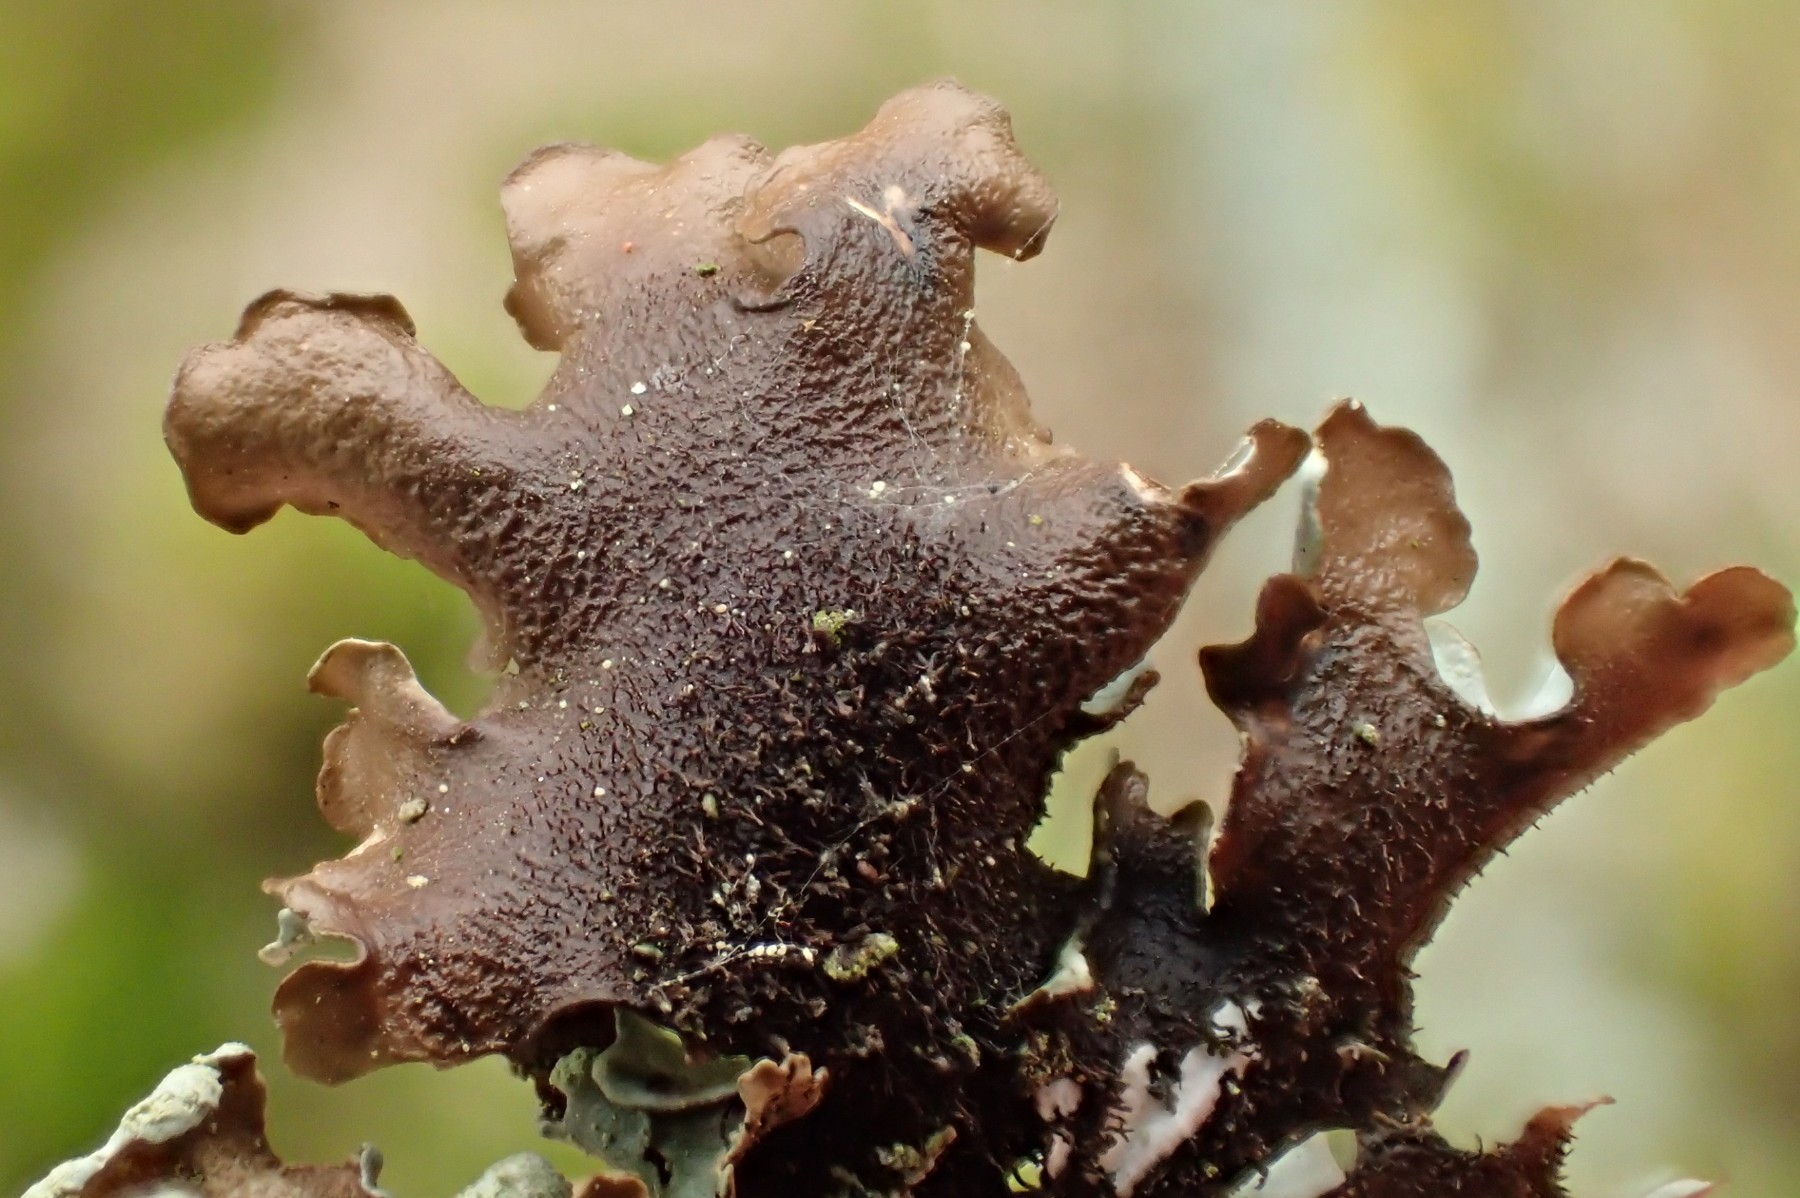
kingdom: Fungi
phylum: Ascomycota
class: Lecanoromycetes
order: Lecanorales
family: Parmeliaceae
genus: Hypotrachyna
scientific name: Hypotrachyna revoluta
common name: bleggrå skållav
